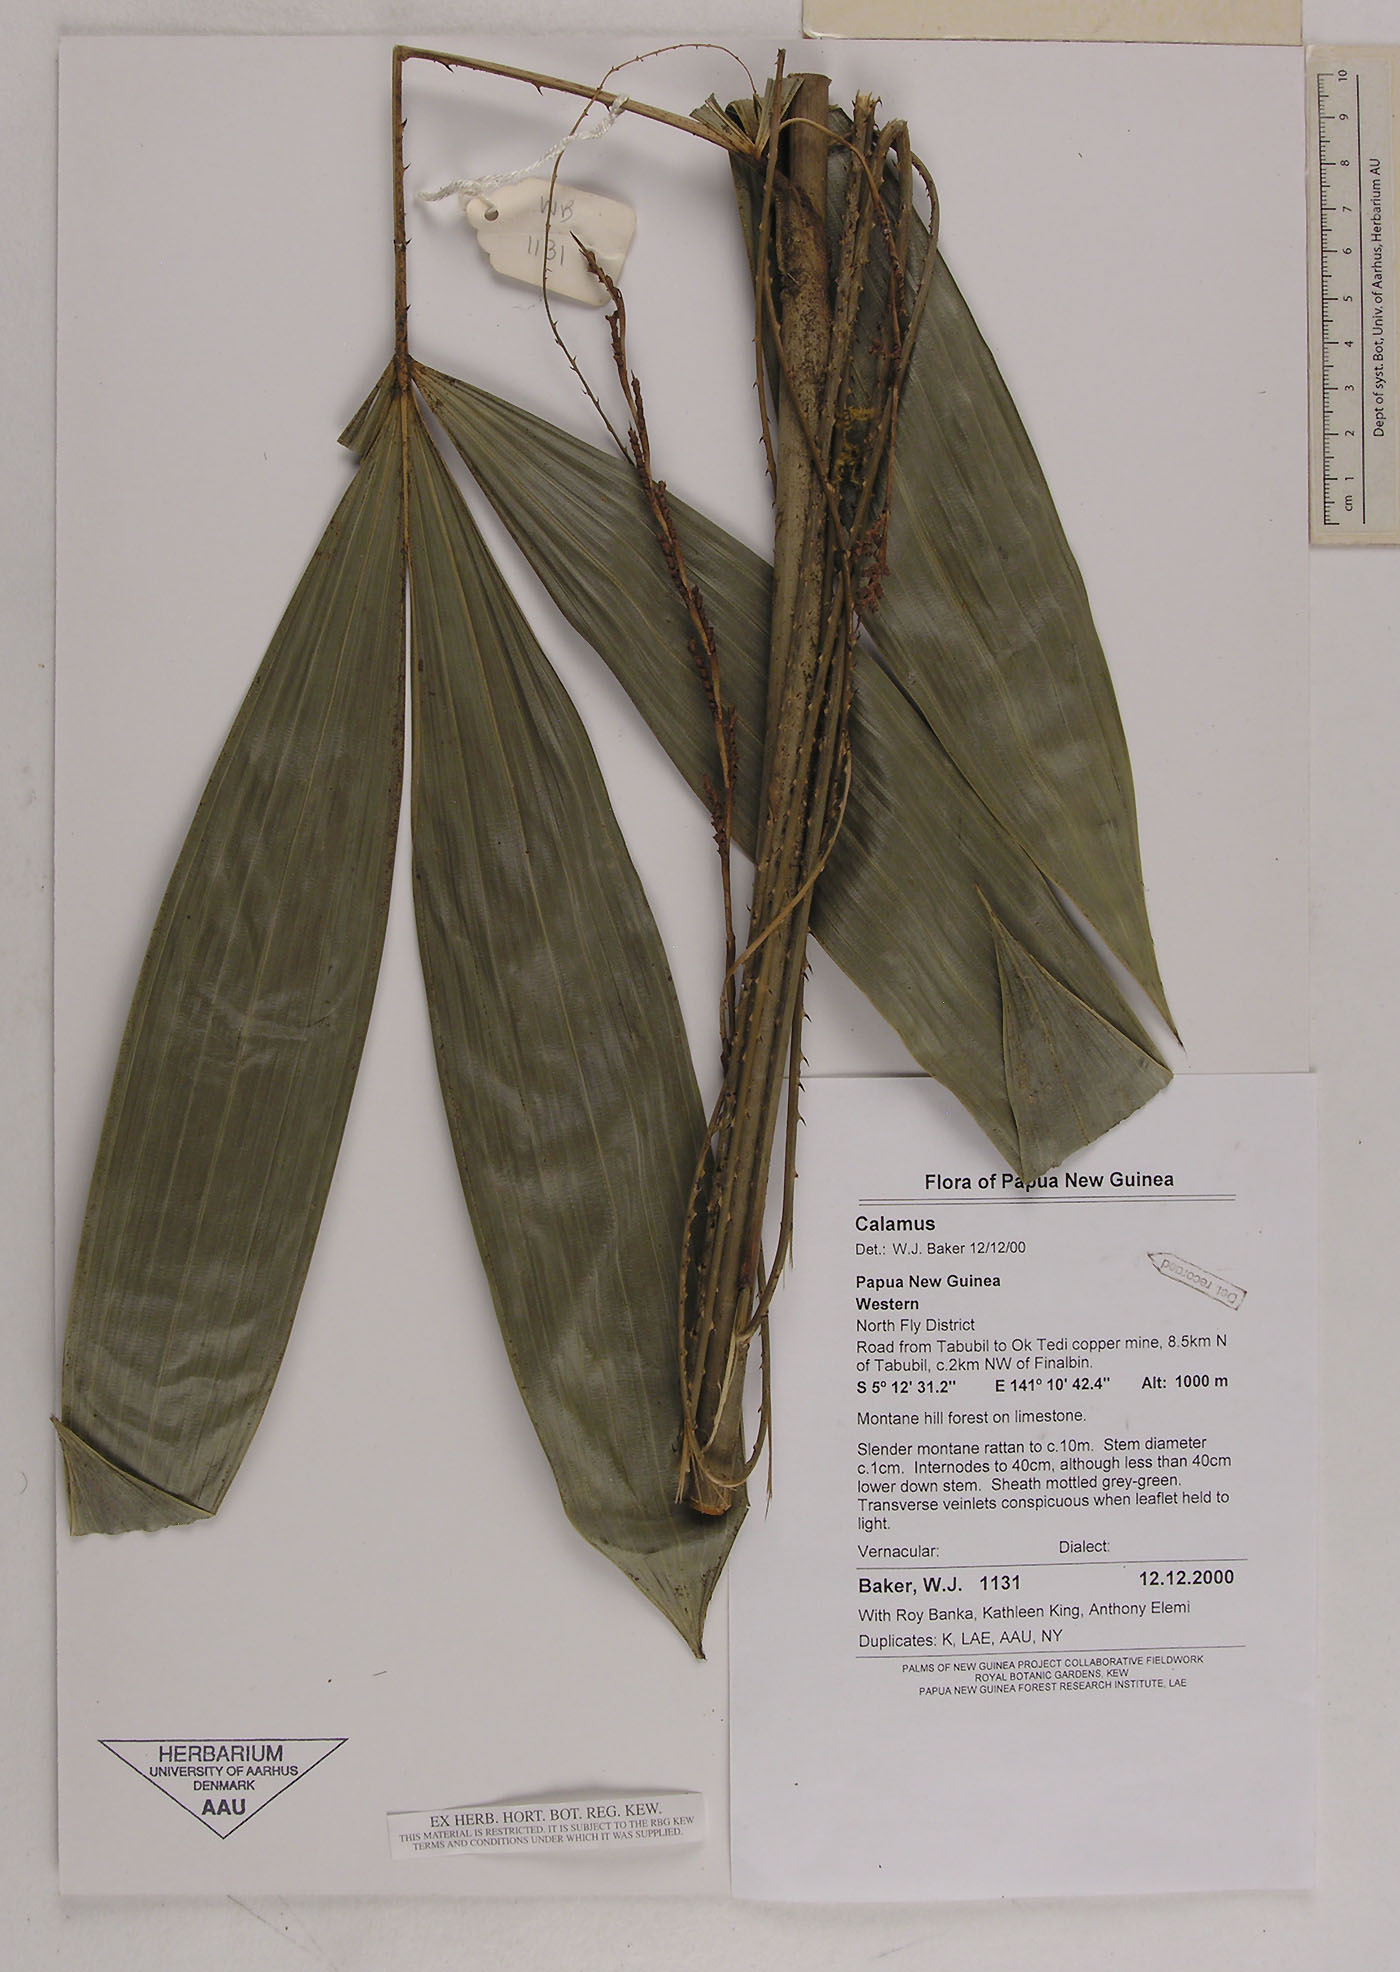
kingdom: Plantae
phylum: Tracheophyta
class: Liliopsida
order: Arecales
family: Arecaceae
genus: Calamus
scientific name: Calamus oresbius
